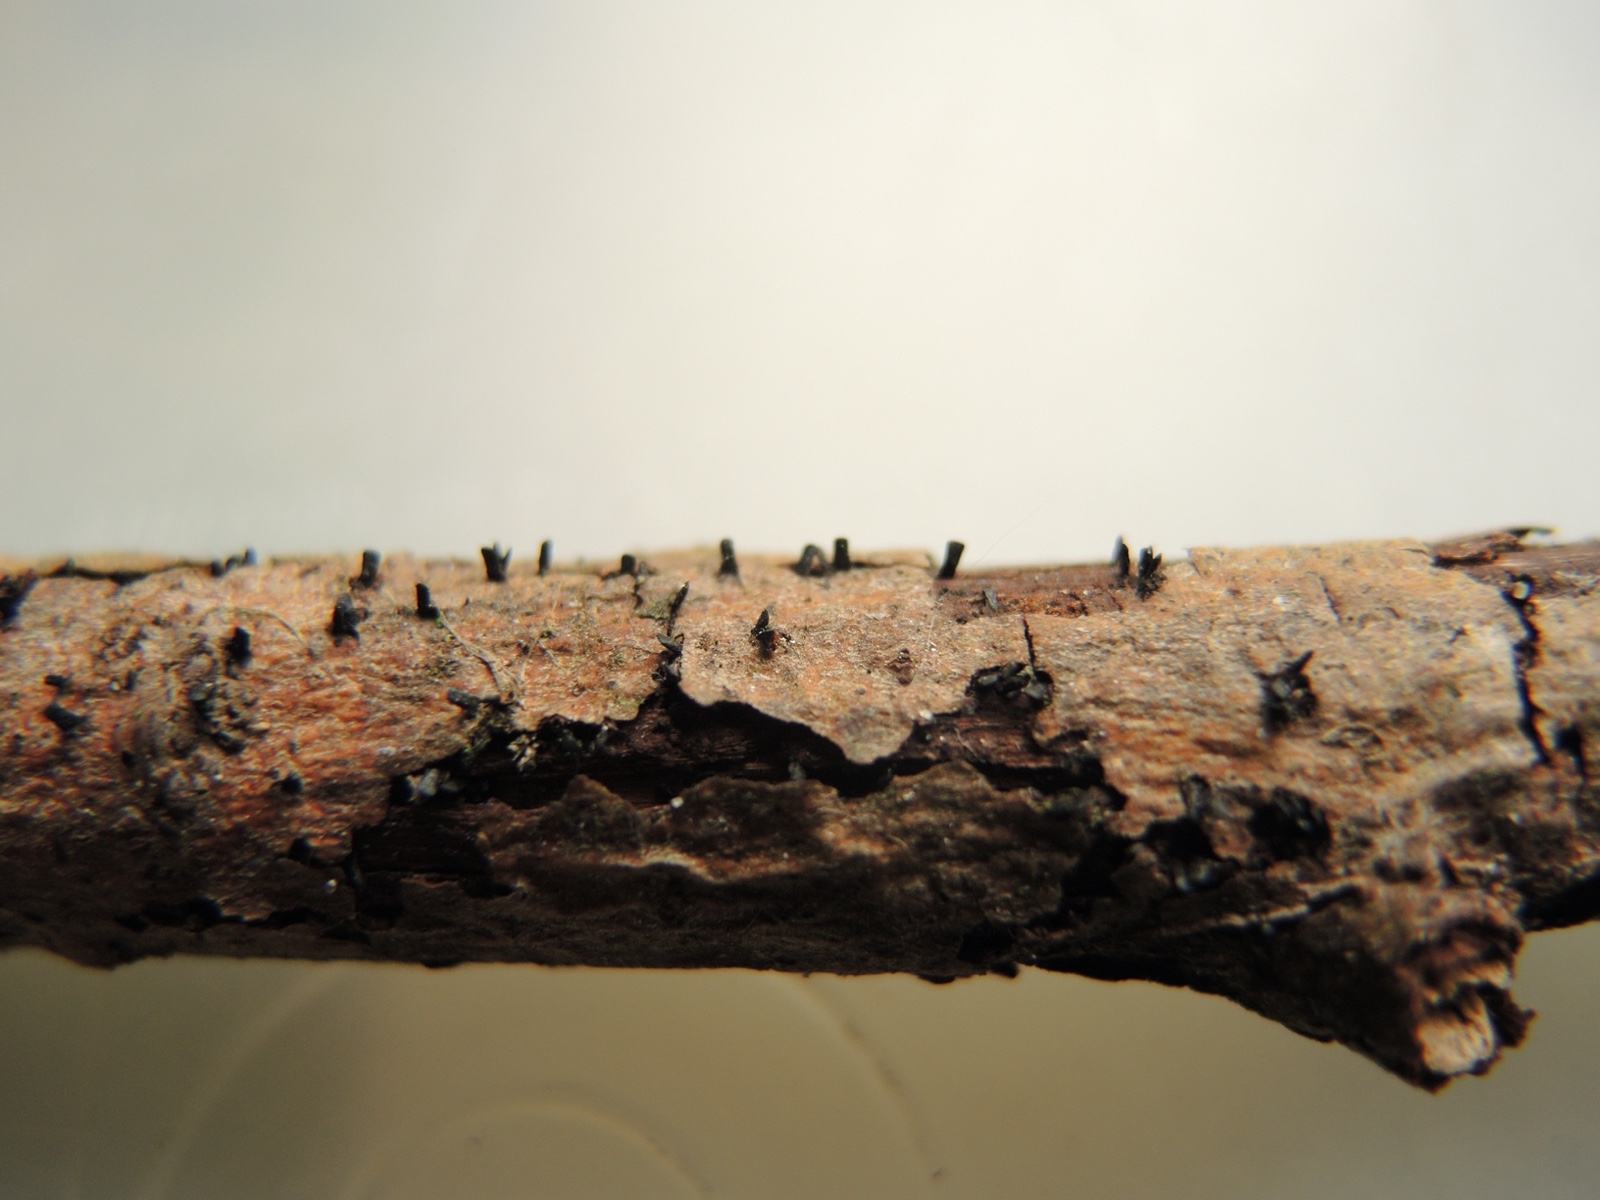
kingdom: Fungi
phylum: Ascomycota
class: Eurotiomycetes
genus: Glyphium
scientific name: Glyphium elatum
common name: kuløkse
